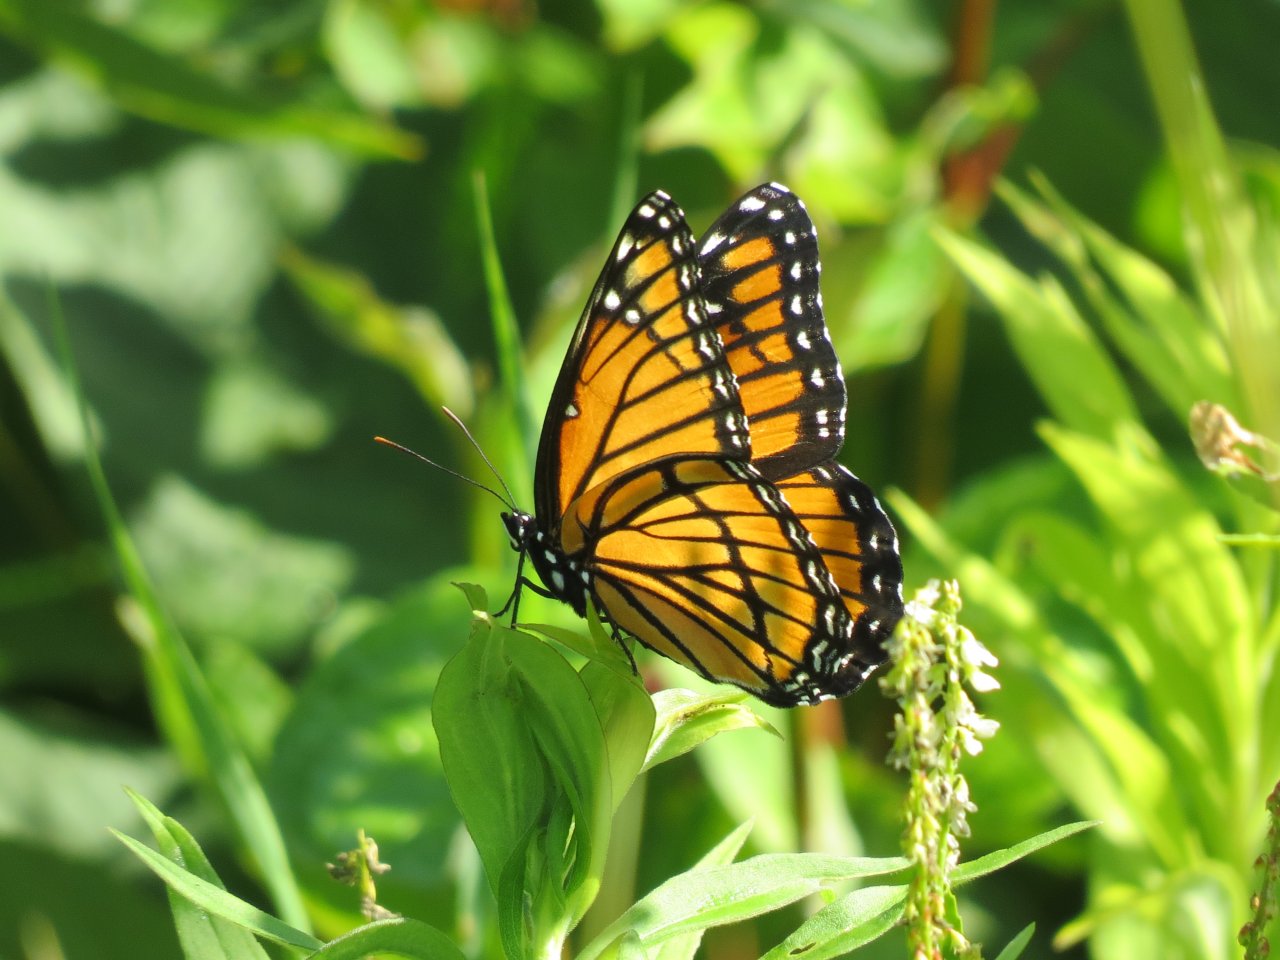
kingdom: Animalia
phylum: Arthropoda
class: Insecta
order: Lepidoptera
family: Nymphalidae
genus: Limenitis
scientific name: Limenitis archippus
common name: Viceroy
